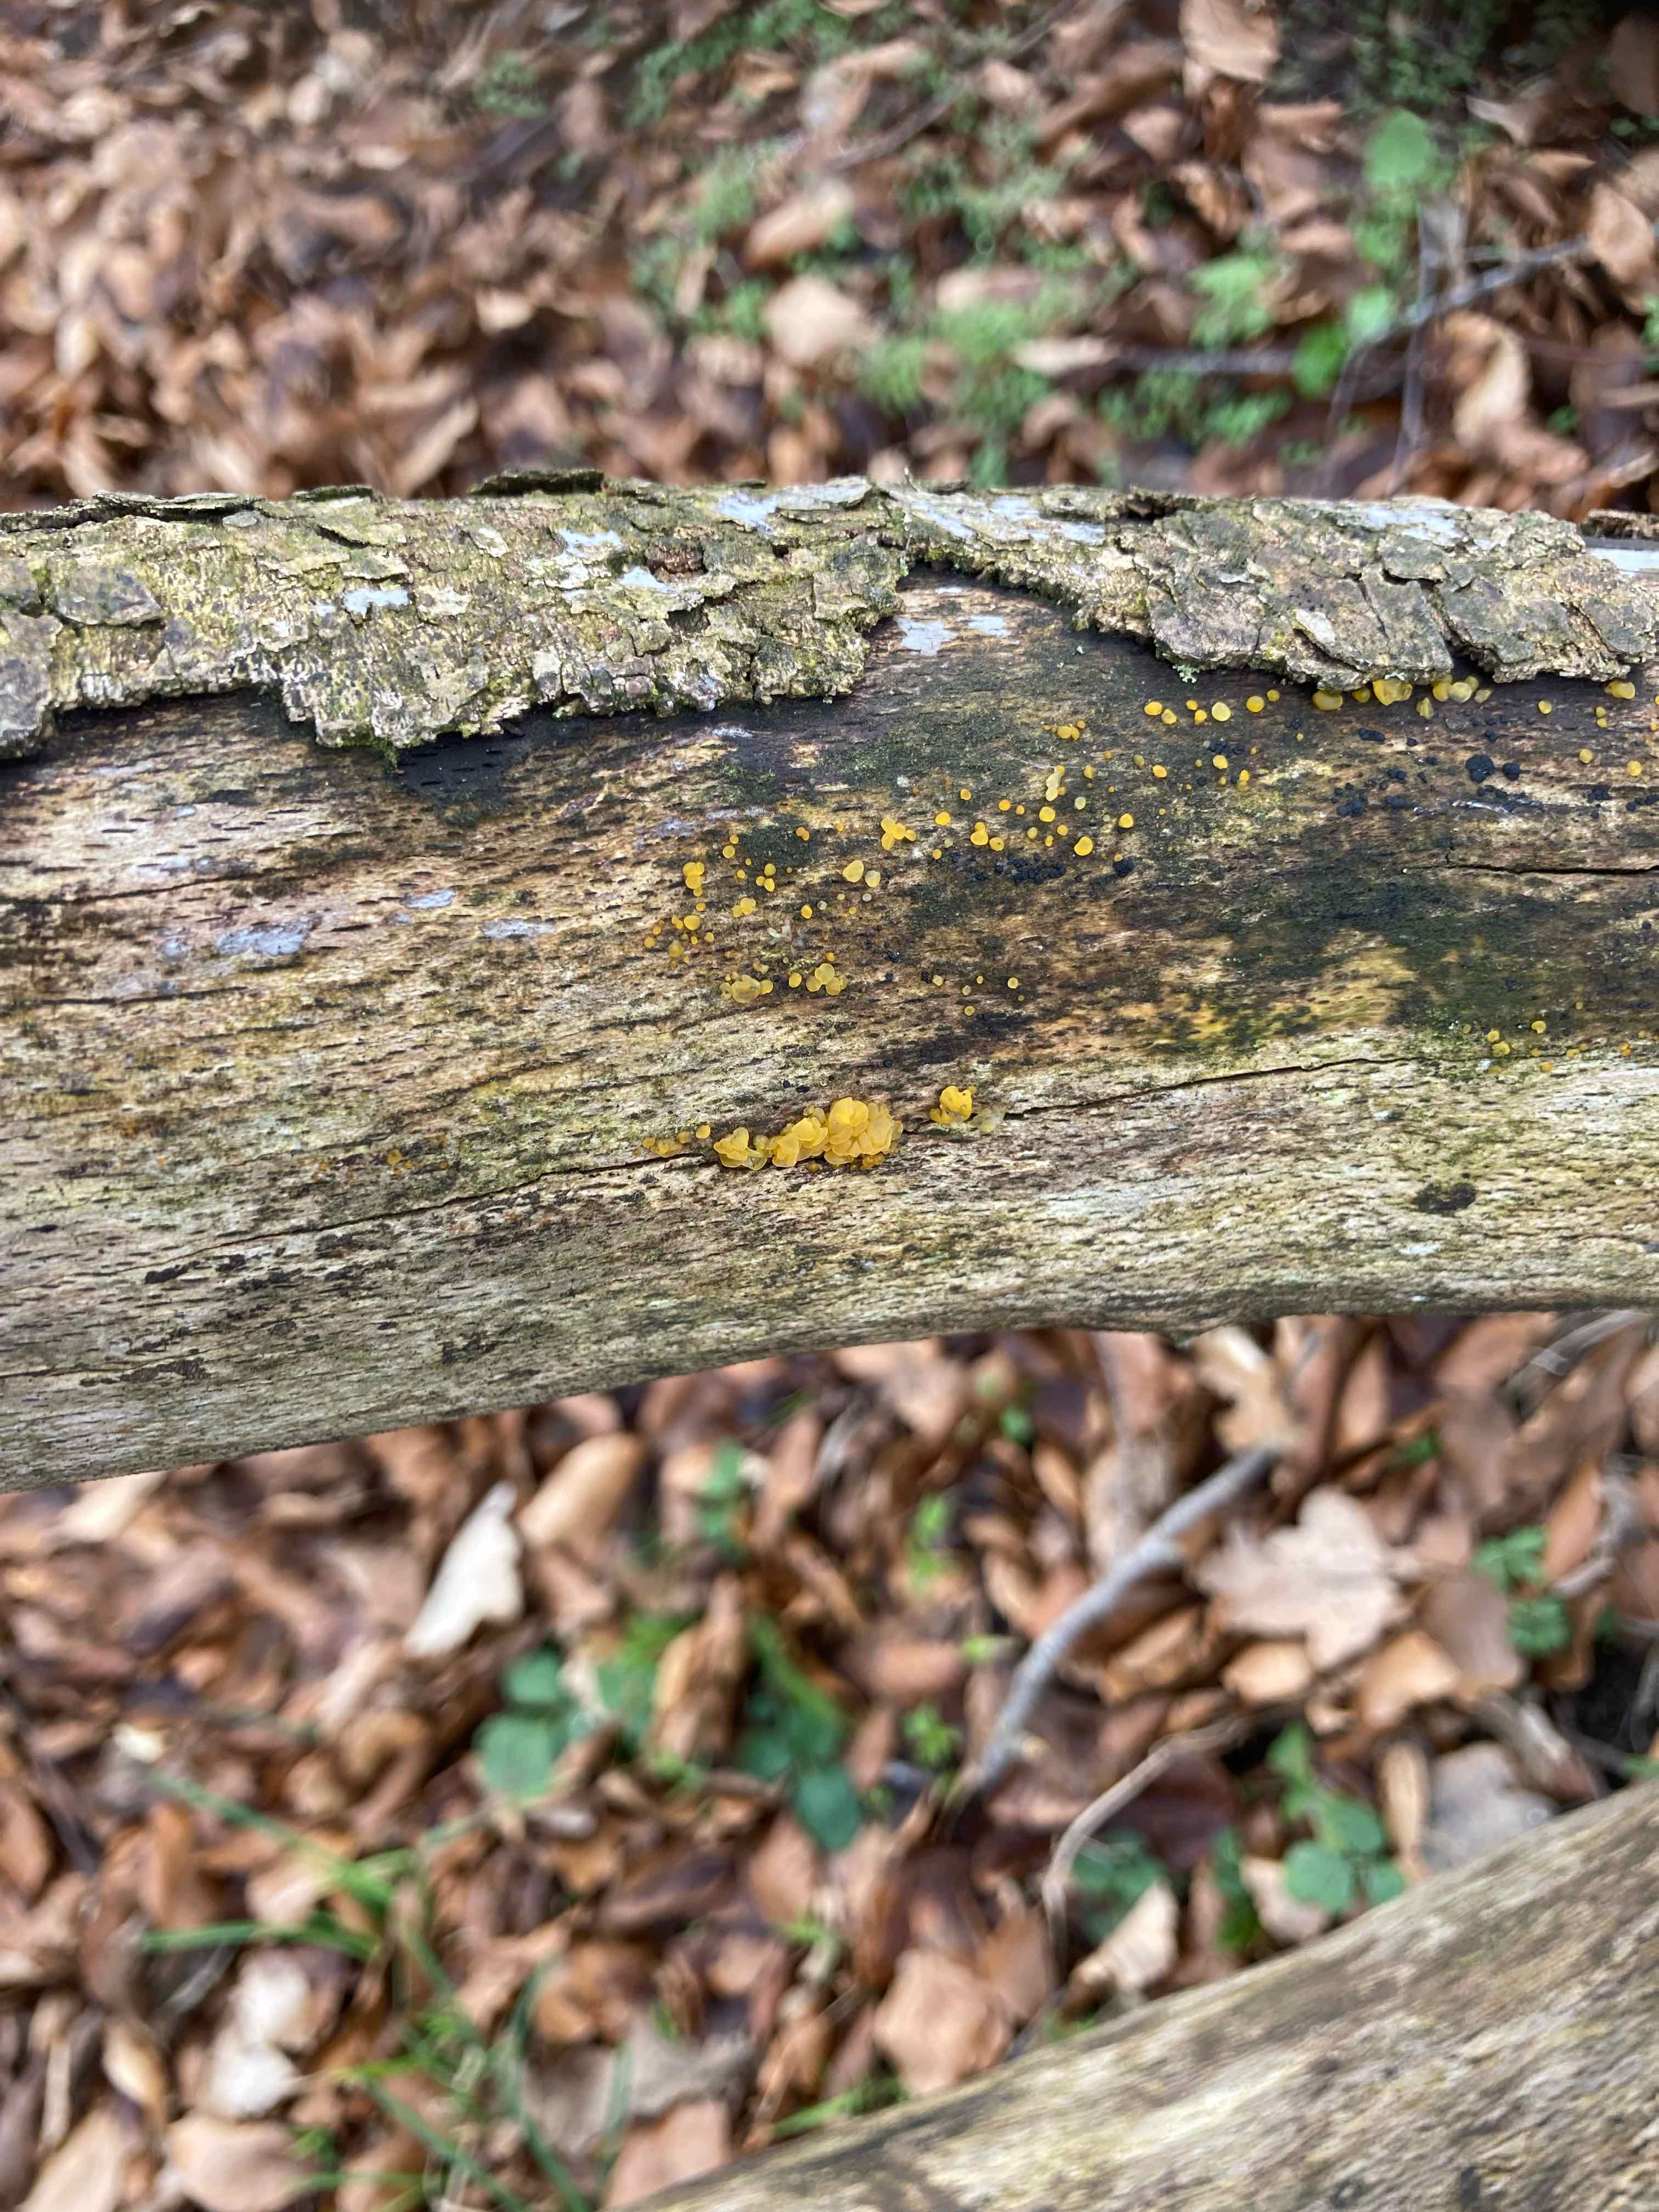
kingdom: Fungi
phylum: Basidiomycota
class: Dacrymycetes
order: Dacrymycetales
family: Dacrymycetaceae
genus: Dacrymyces
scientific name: Dacrymyces lacrymalis
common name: rynket tåresvamp
